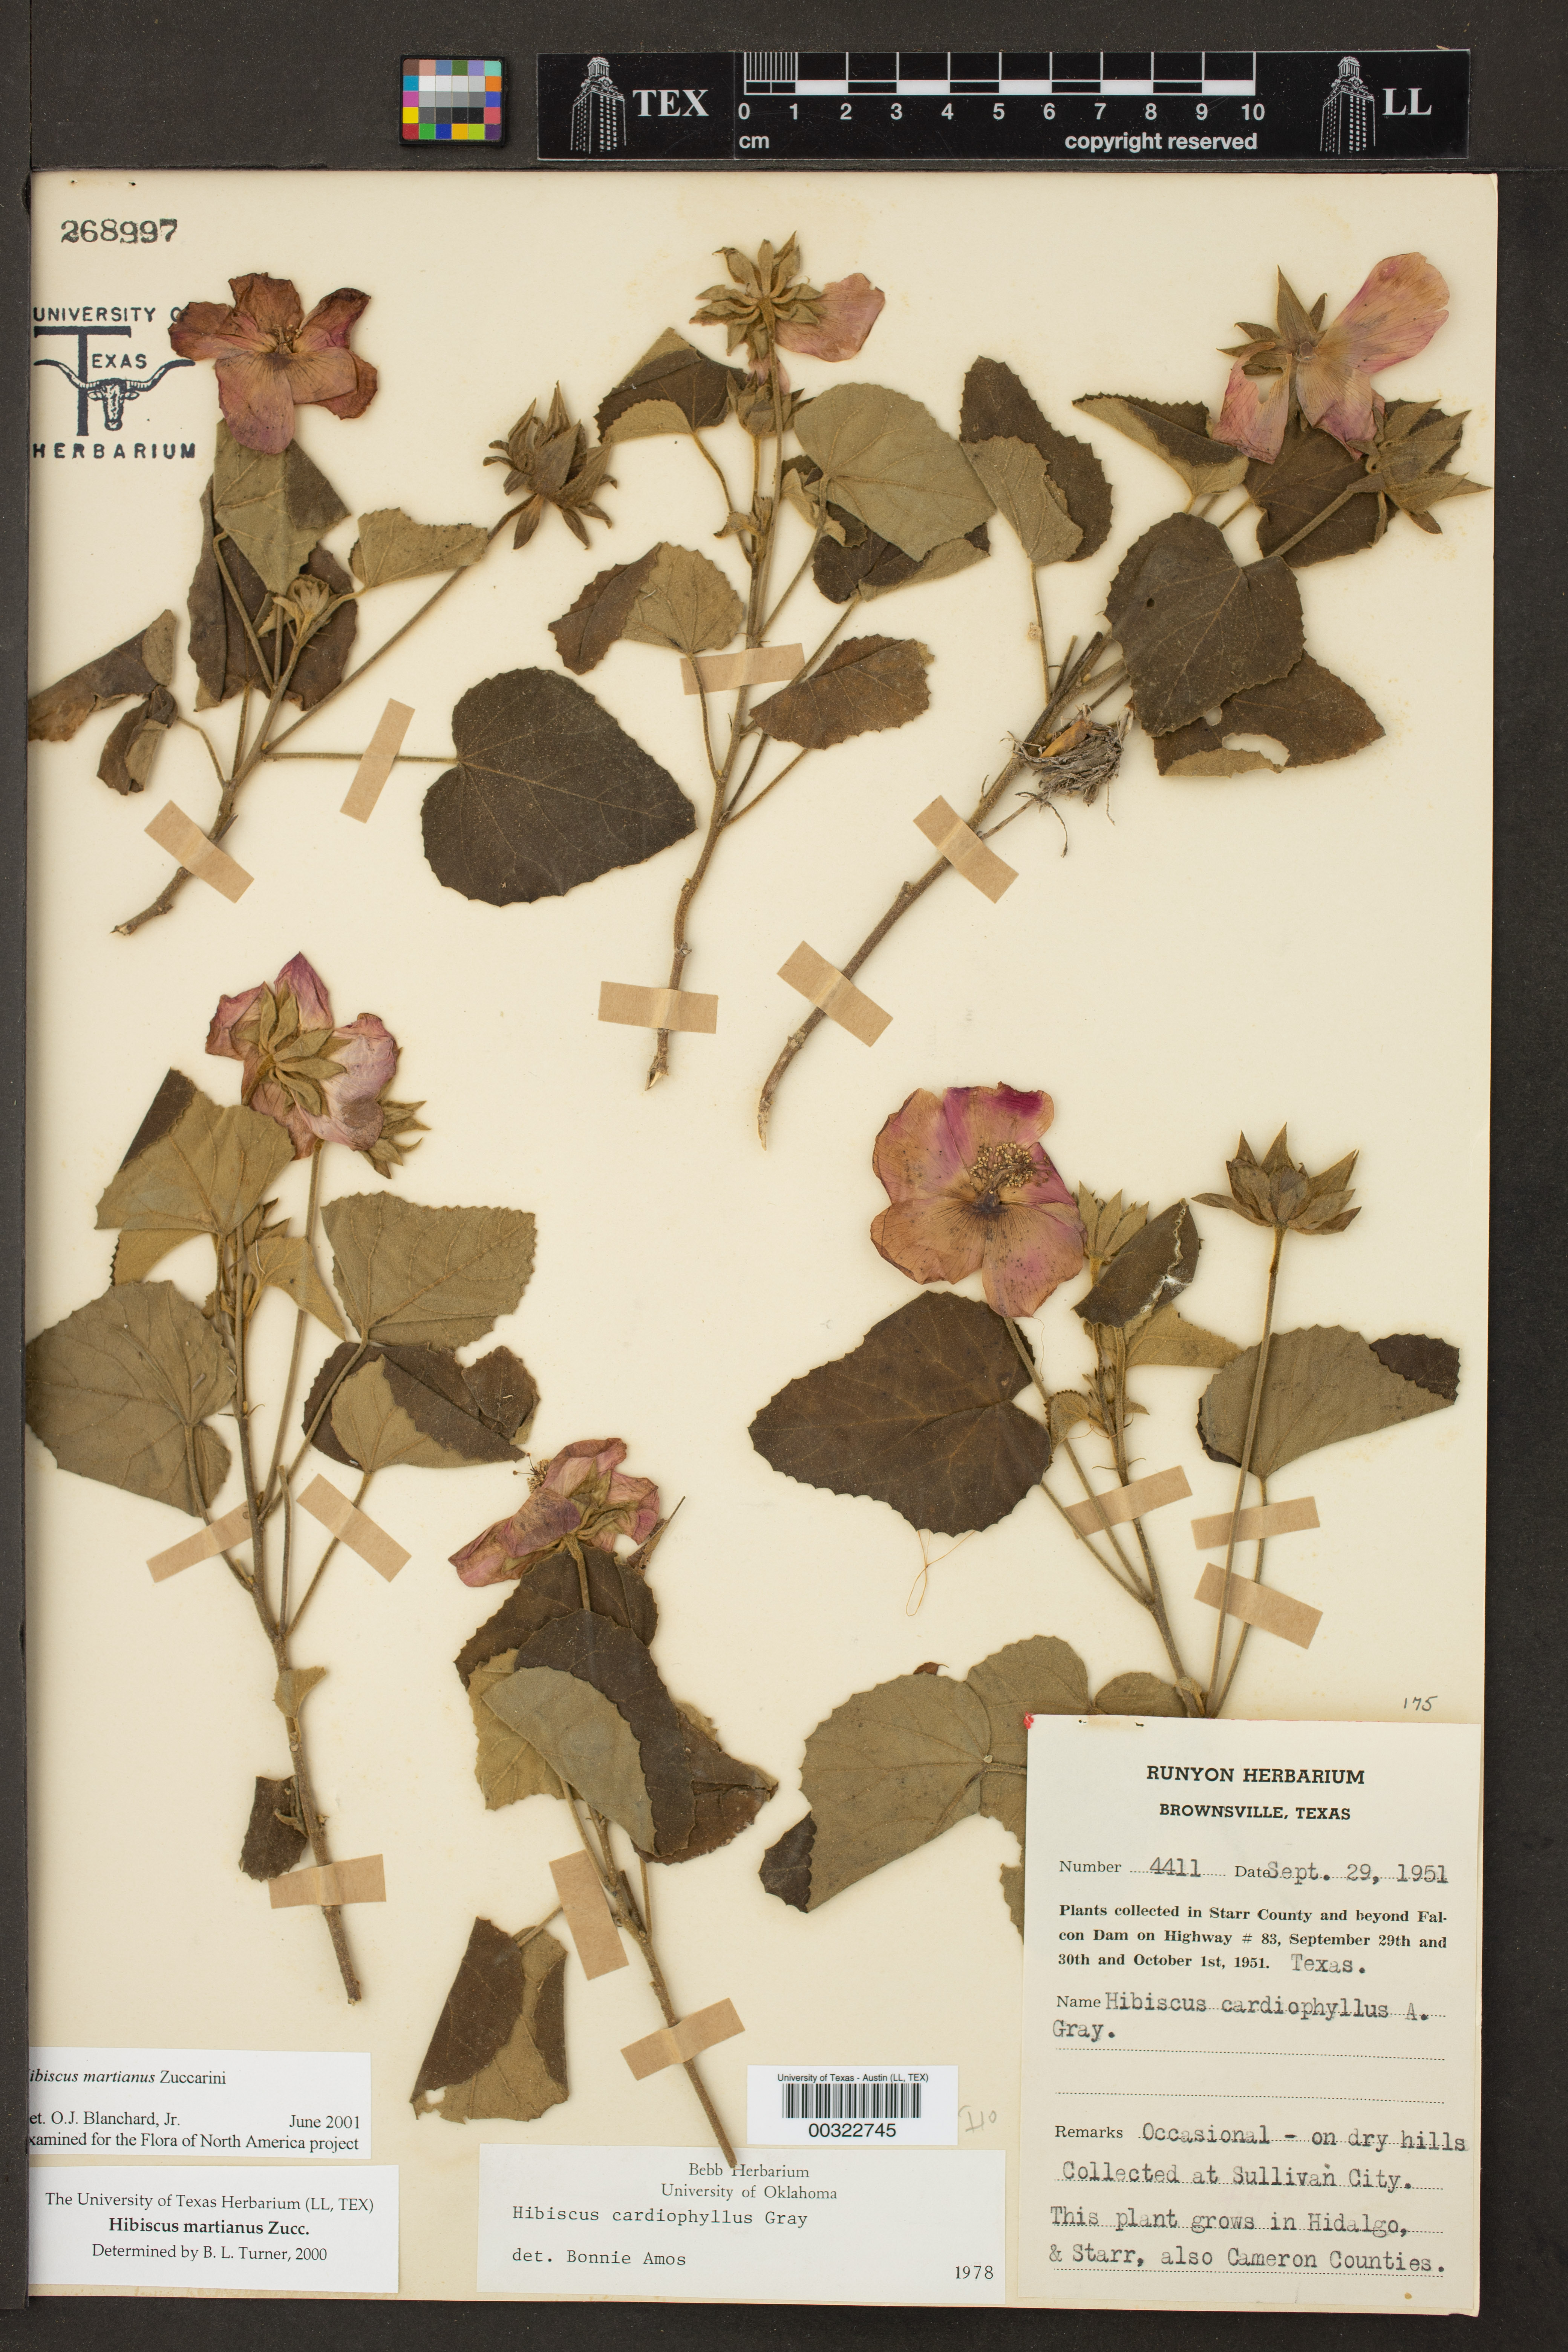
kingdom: Plantae
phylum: Tracheophyta
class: Magnoliopsida
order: Malvales
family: Malvaceae
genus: Hibiscus
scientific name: Hibiscus martianus
